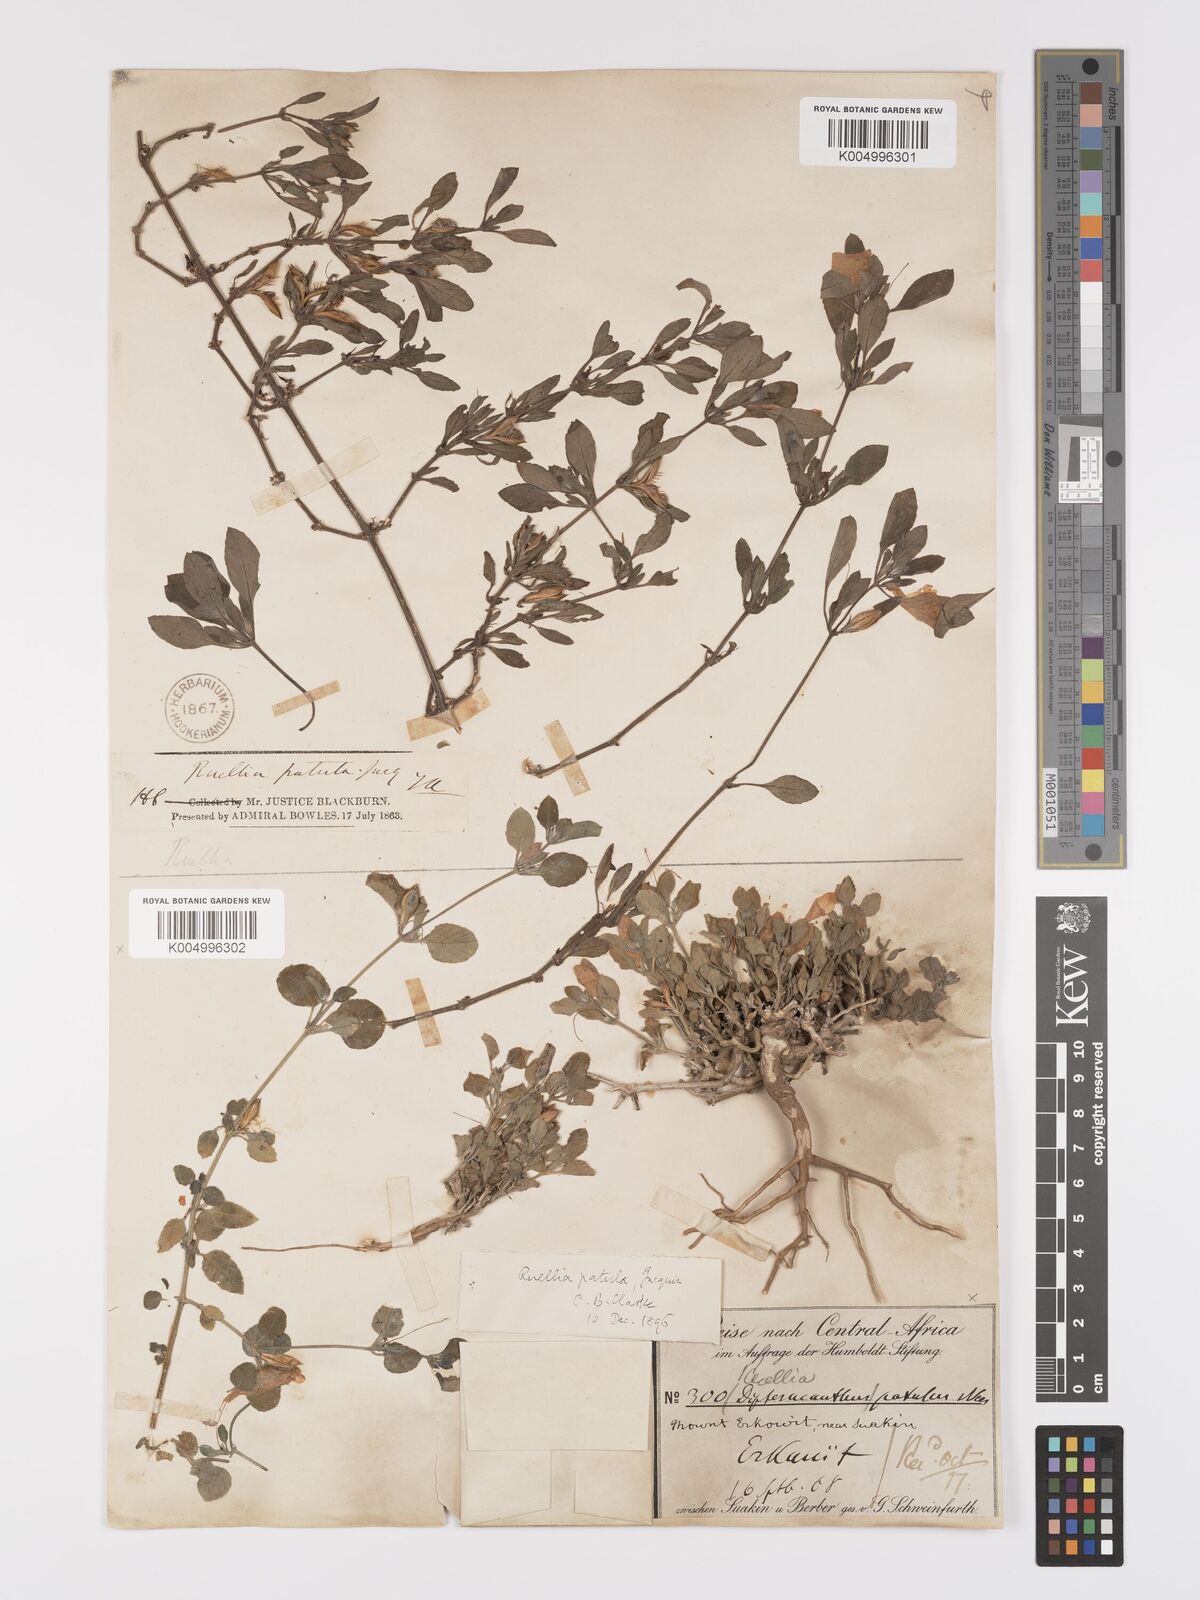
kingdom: Plantae
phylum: Tracheophyta
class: Magnoliopsida
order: Lamiales
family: Acanthaceae
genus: Ruellia
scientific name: Ruellia patula
